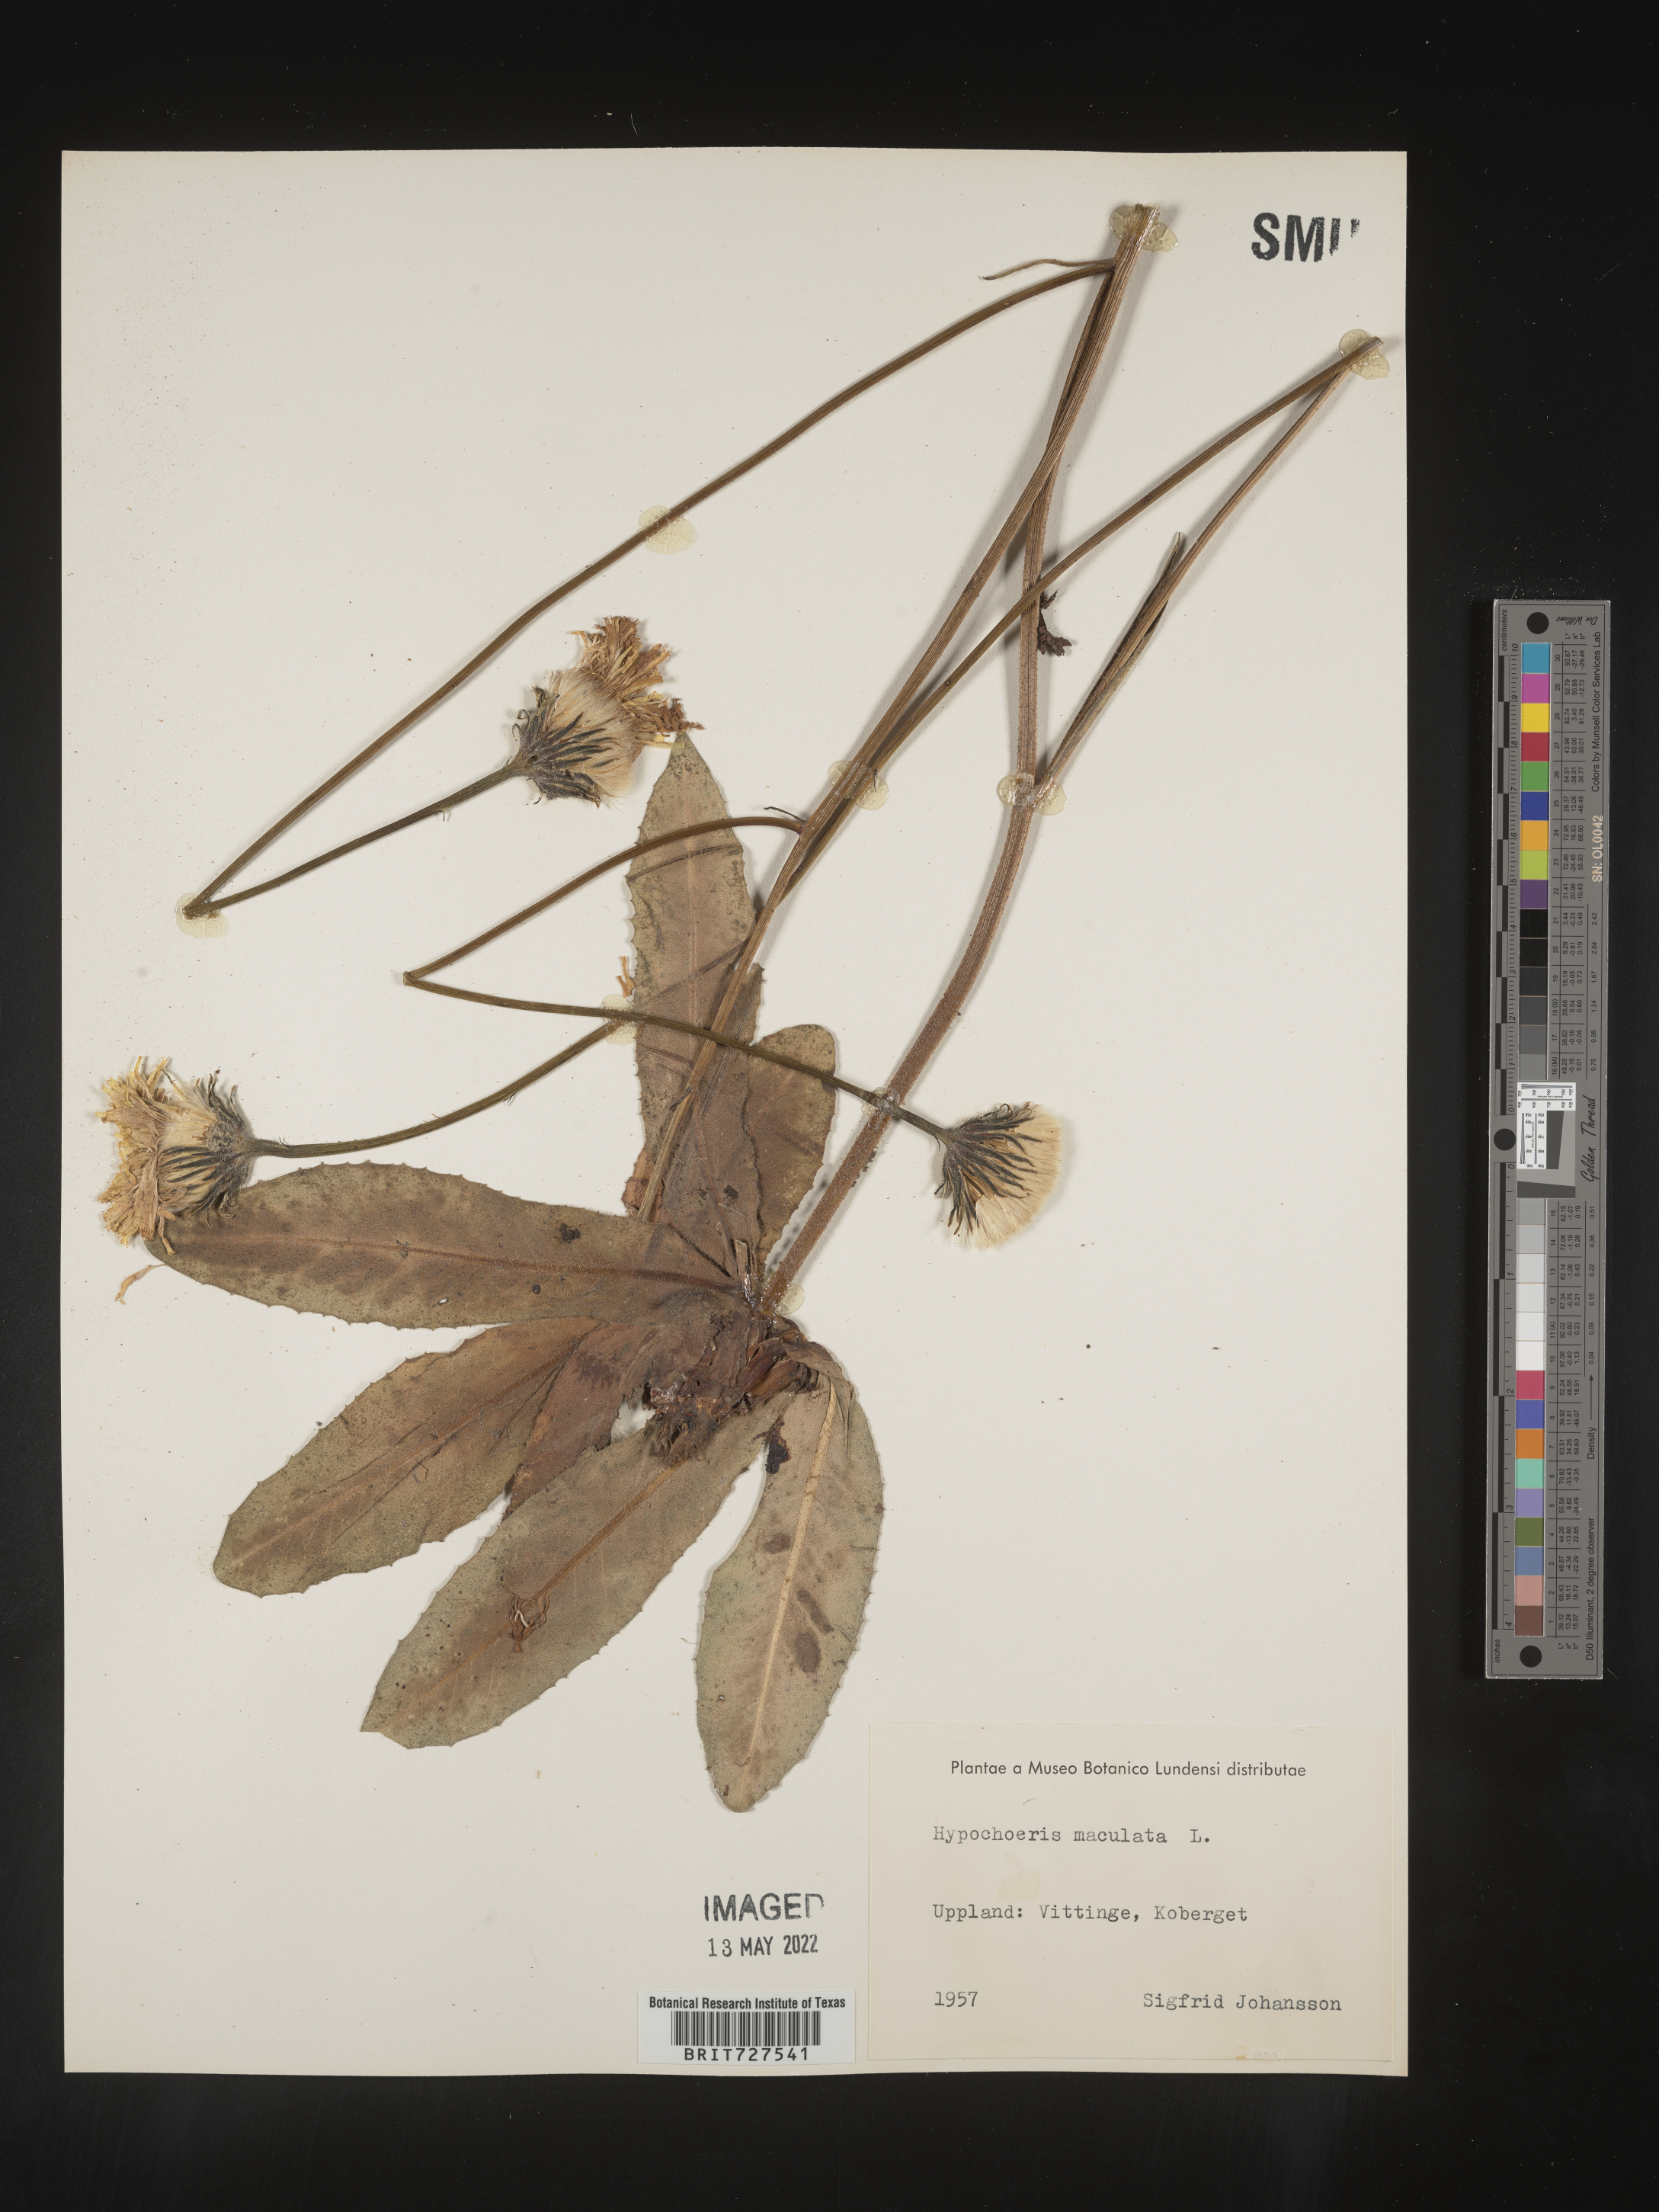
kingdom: Plantae
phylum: Tracheophyta
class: Magnoliopsida
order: Asterales
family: Asteraceae
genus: Hypochaeris
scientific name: Hypochaeris
